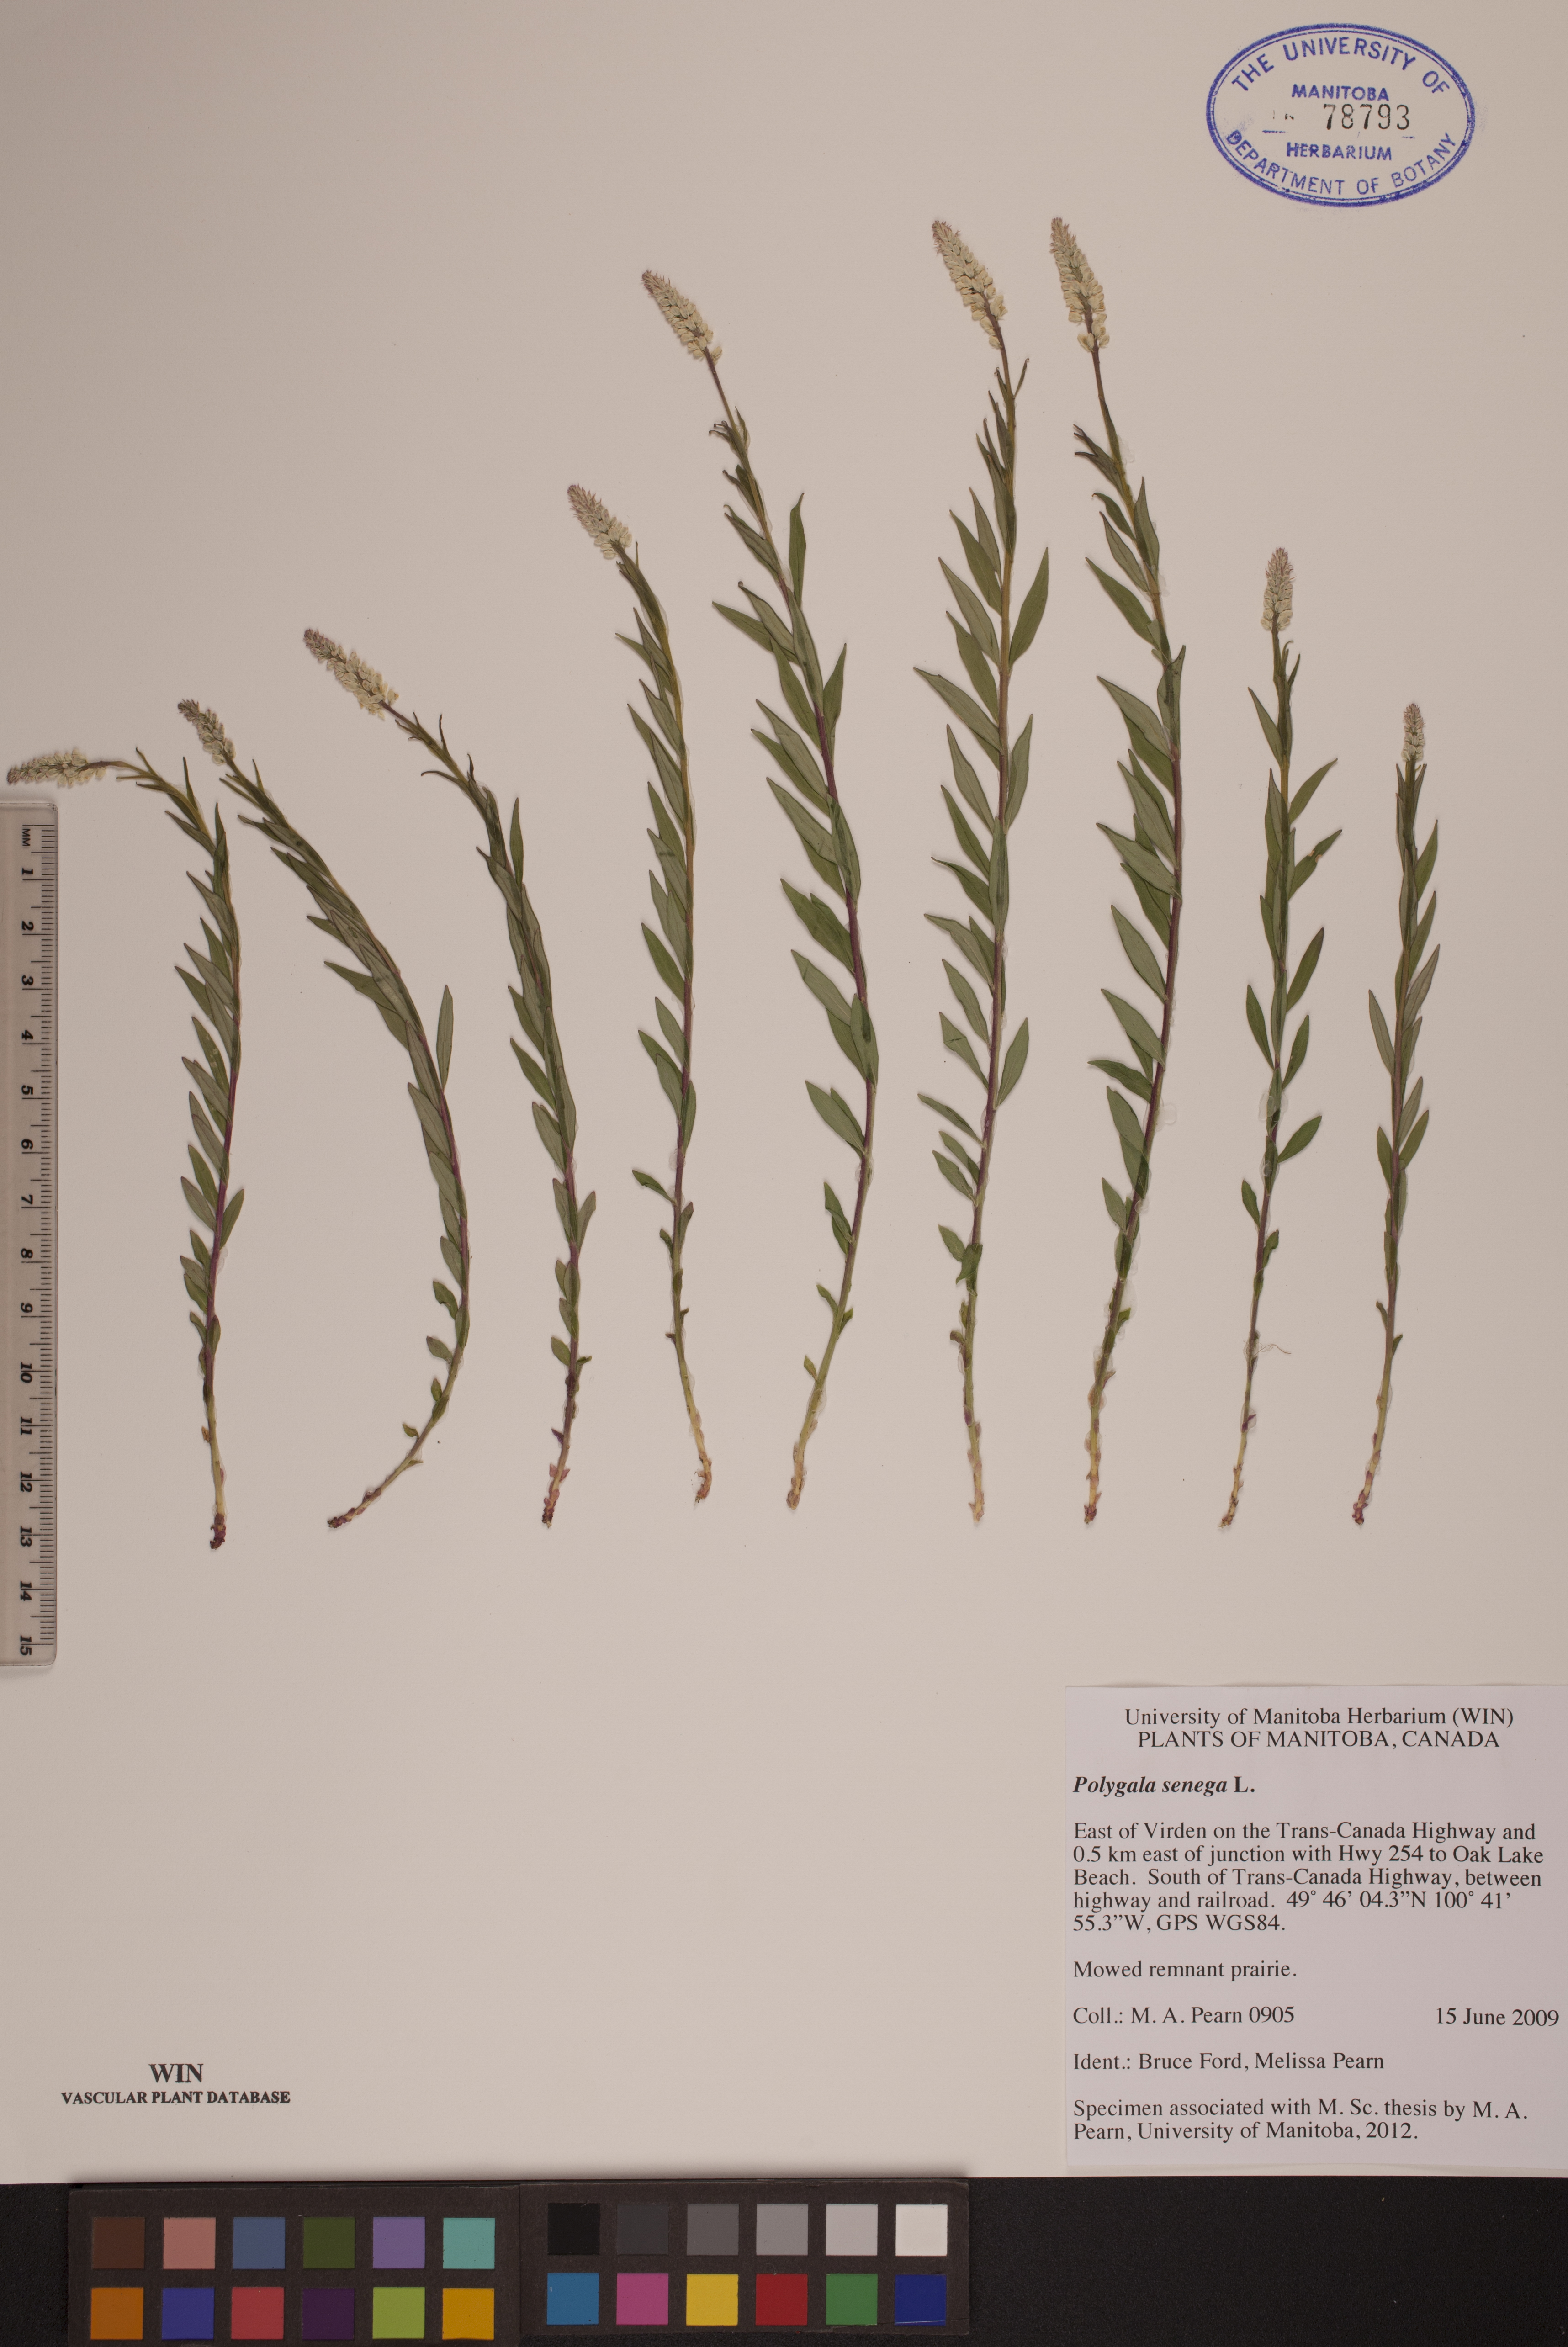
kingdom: Plantae
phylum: Tracheophyta
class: Magnoliopsida
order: Fabales
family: Polygalaceae
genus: Polygala
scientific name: Polygala senega
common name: Seneca snakeroot
